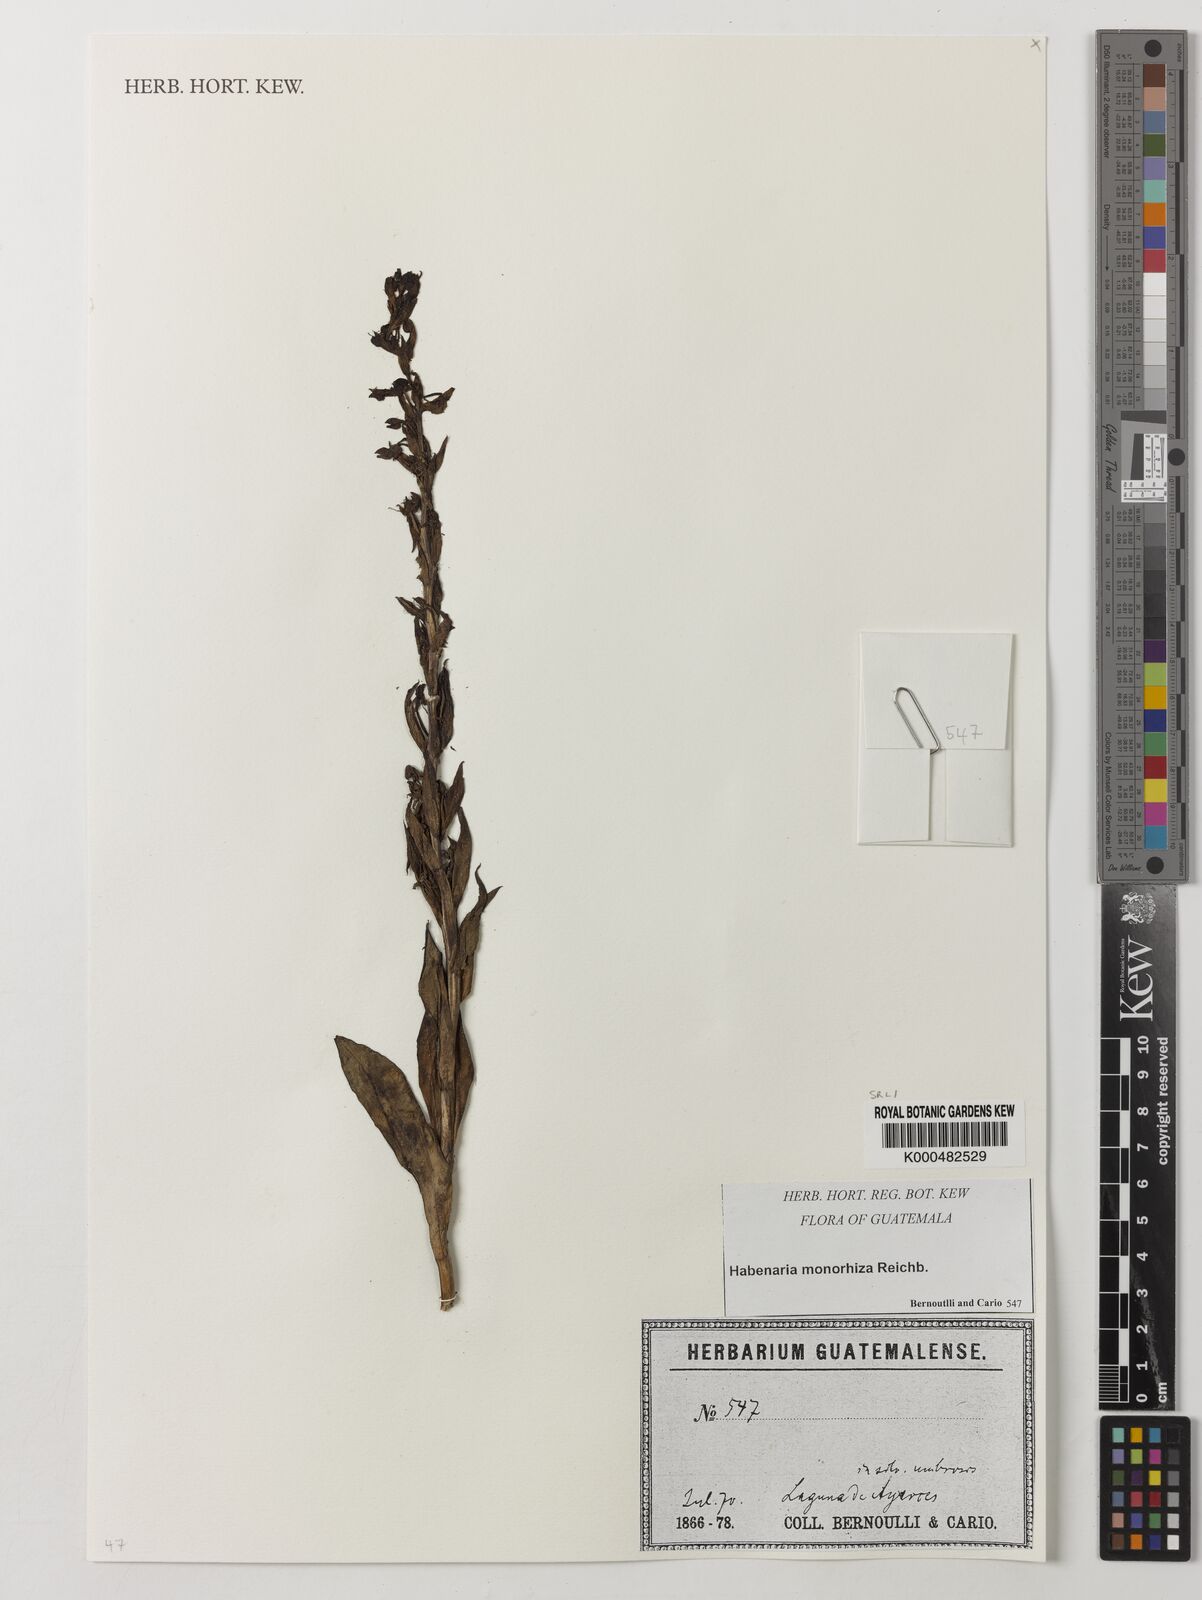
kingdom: Plantae
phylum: Tracheophyta
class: Liliopsida
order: Asparagales
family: Orchidaceae
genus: Habenaria
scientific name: Habenaria monorrhiza
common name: Tropical bog orchid
